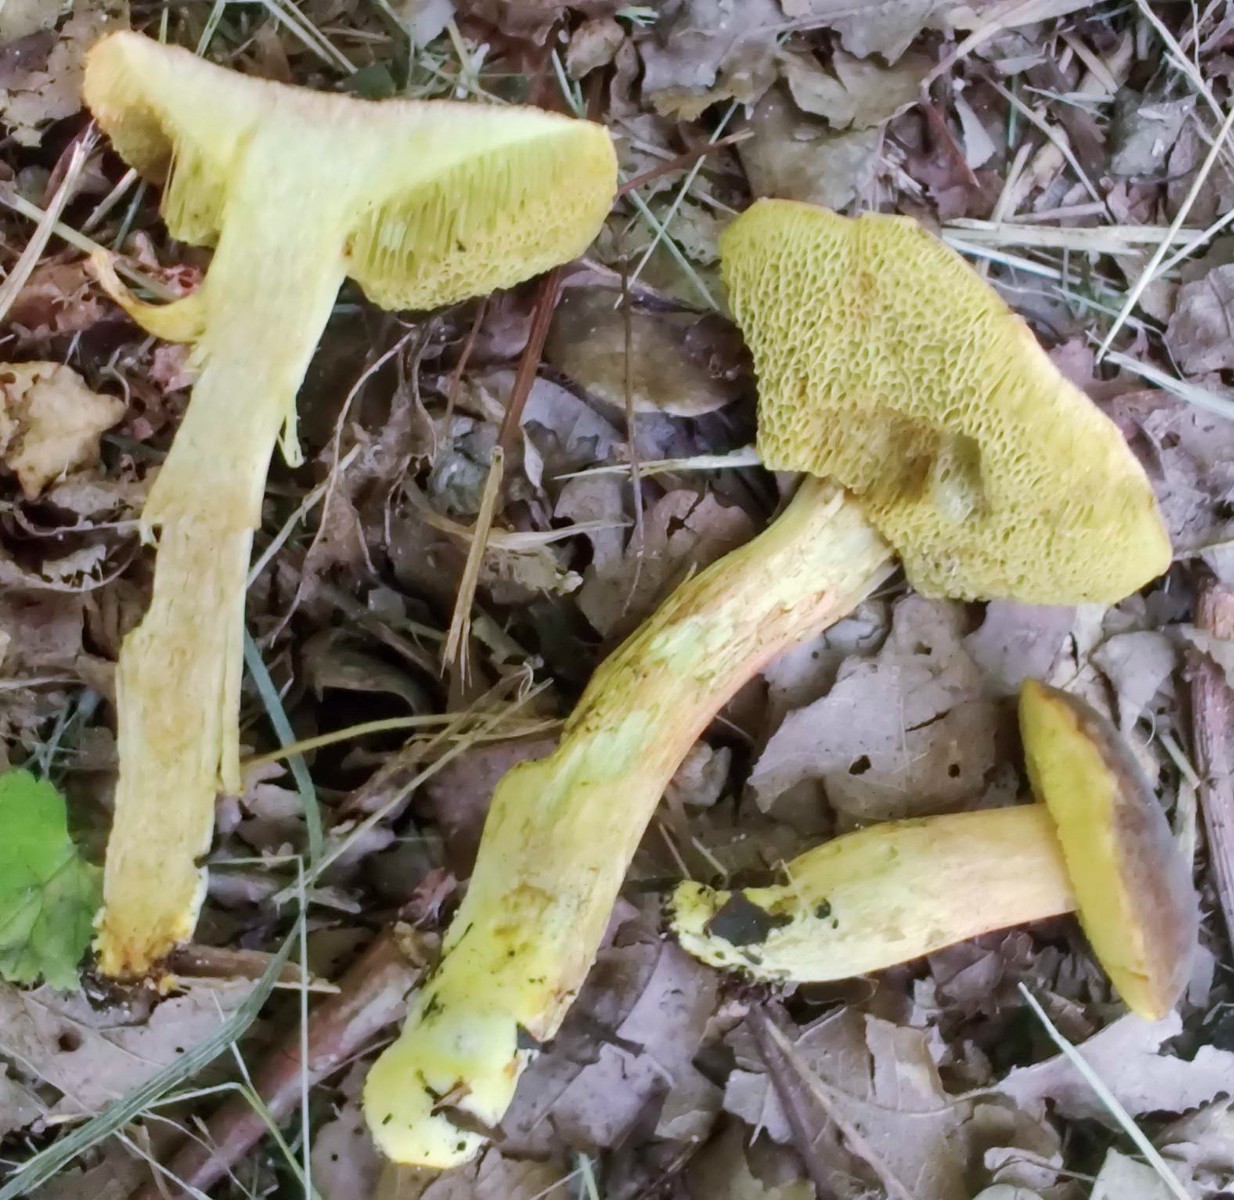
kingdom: Fungi
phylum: Basidiomycota
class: Agaricomycetes
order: Boletales
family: Boletaceae
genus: Hortiboletus
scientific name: Hortiboletus engelii
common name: fersken-rørhat
